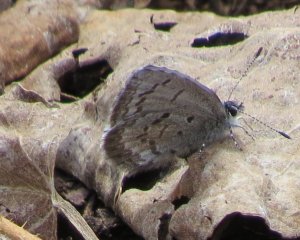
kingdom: Animalia
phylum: Arthropoda
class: Insecta
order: Lepidoptera
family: Lycaenidae
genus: Celastrina
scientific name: Celastrina lucia
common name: Northern Spring Azure
